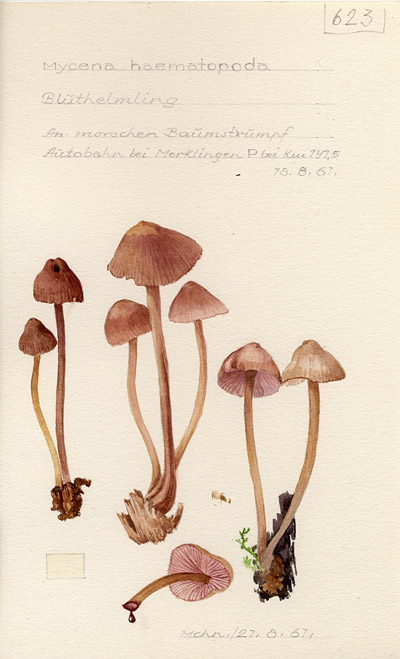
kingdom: Fungi
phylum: Basidiomycota
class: Agaricomycetes
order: Agaricales
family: Mycenaceae
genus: Mycena
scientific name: Mycena haematopus
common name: Burgundydrop bonnet
